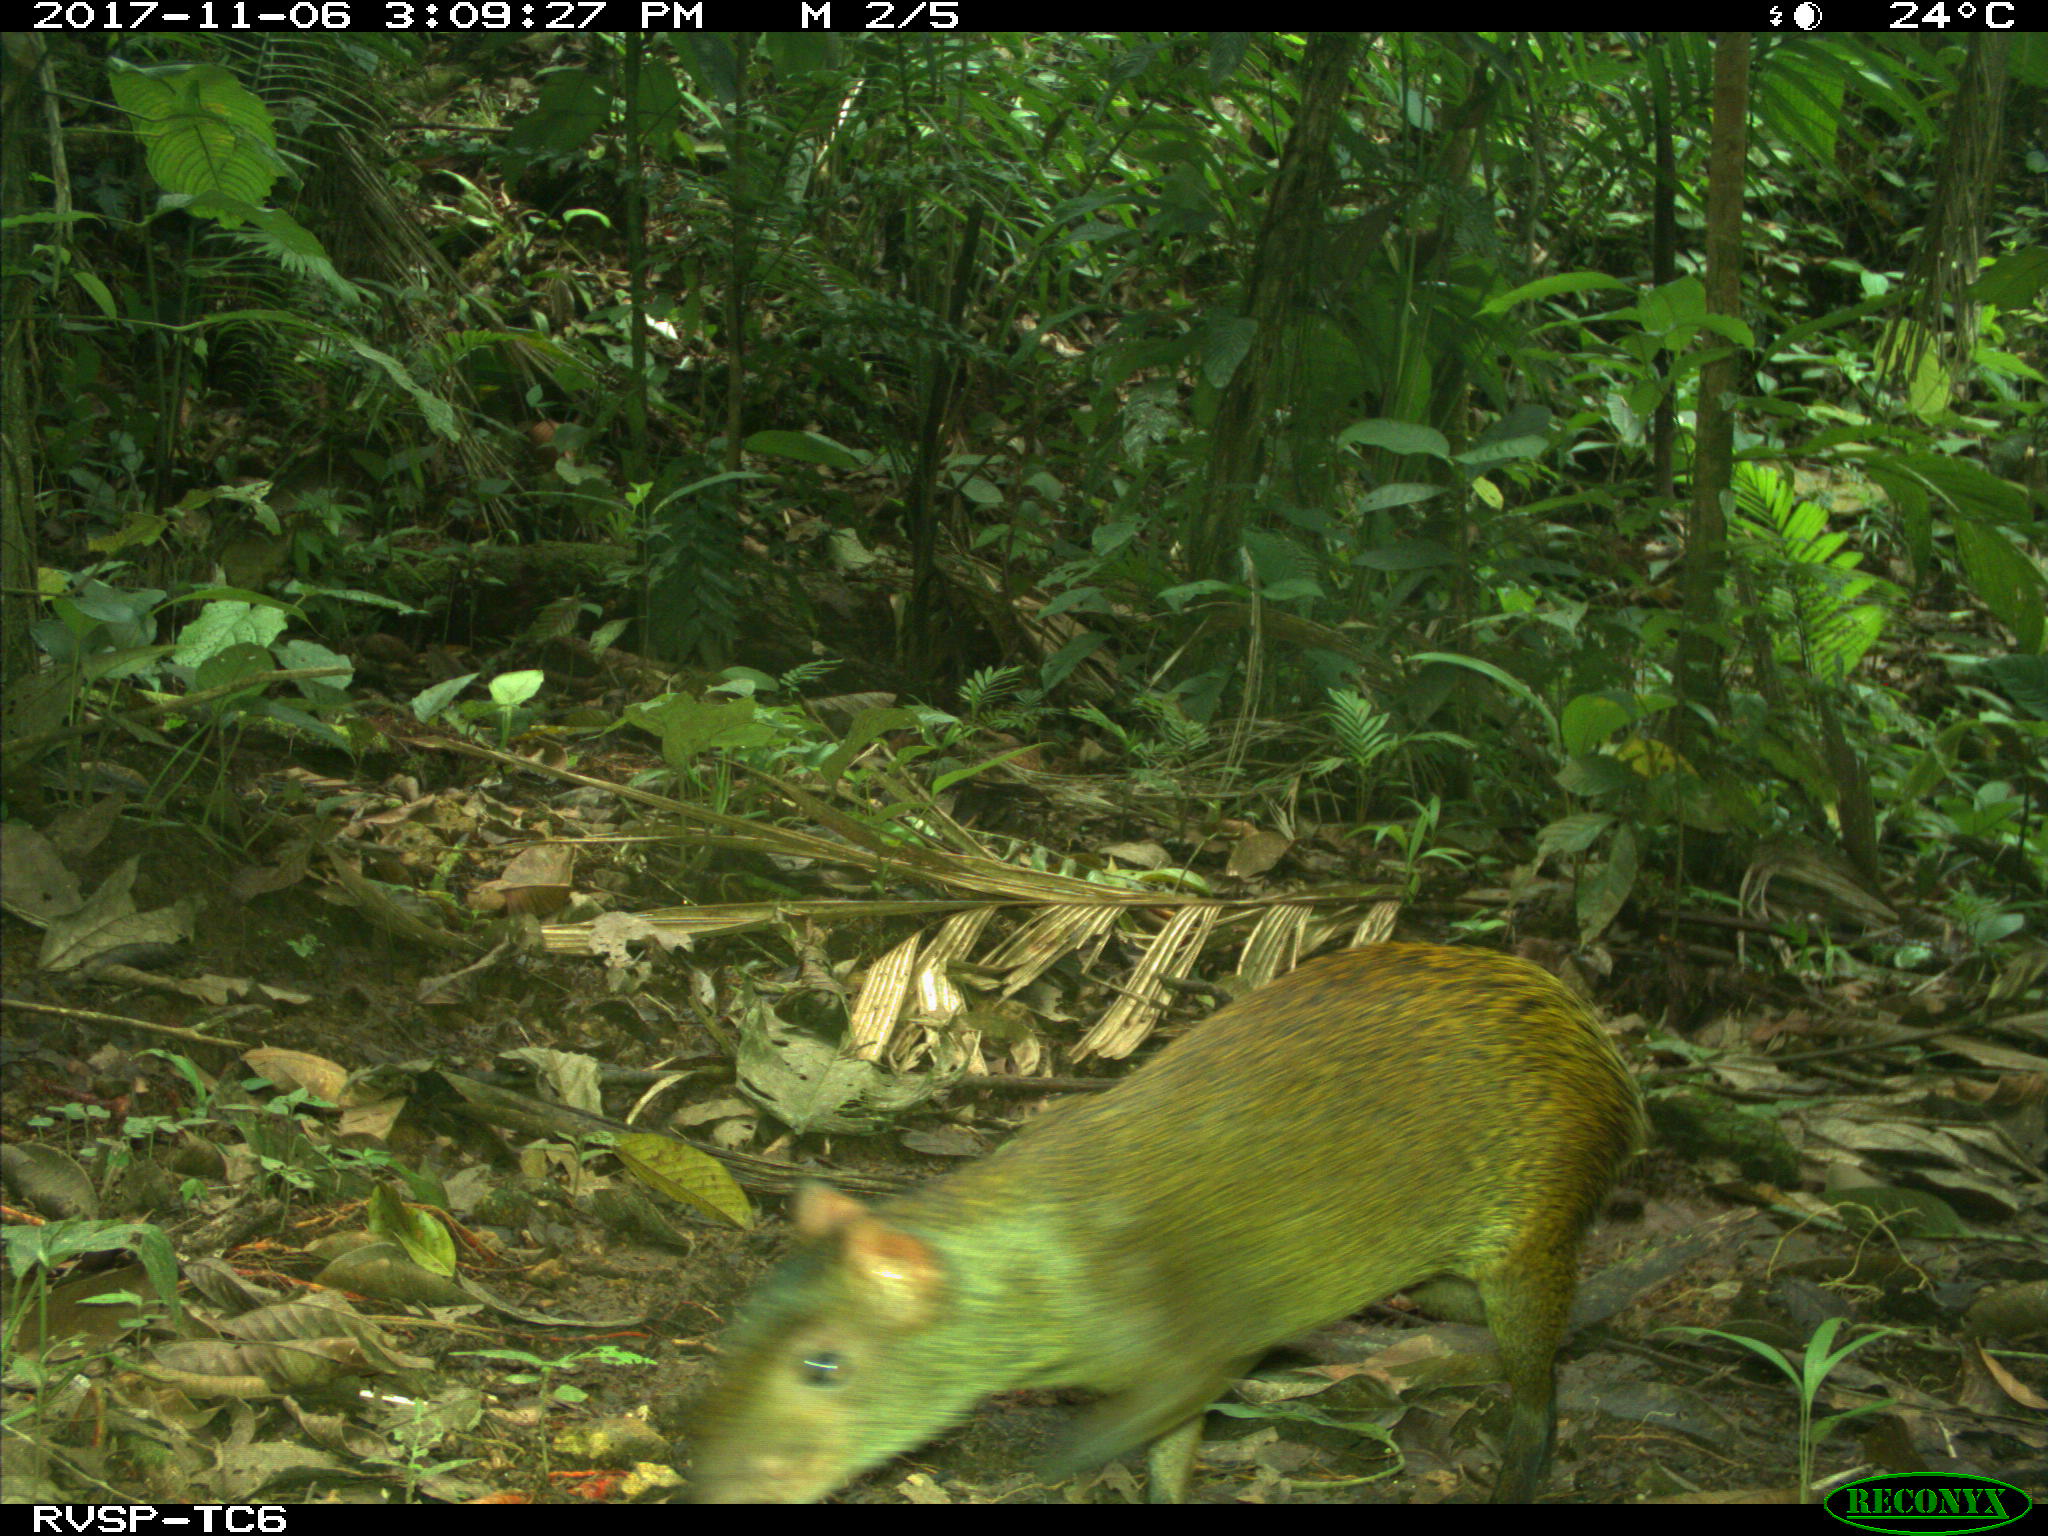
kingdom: Animalia
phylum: Chordata
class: Mammalia
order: Rodentia
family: Dasyproctidae
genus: Dasyprocta
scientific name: Dasyprocta punctata
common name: Central american agouti
